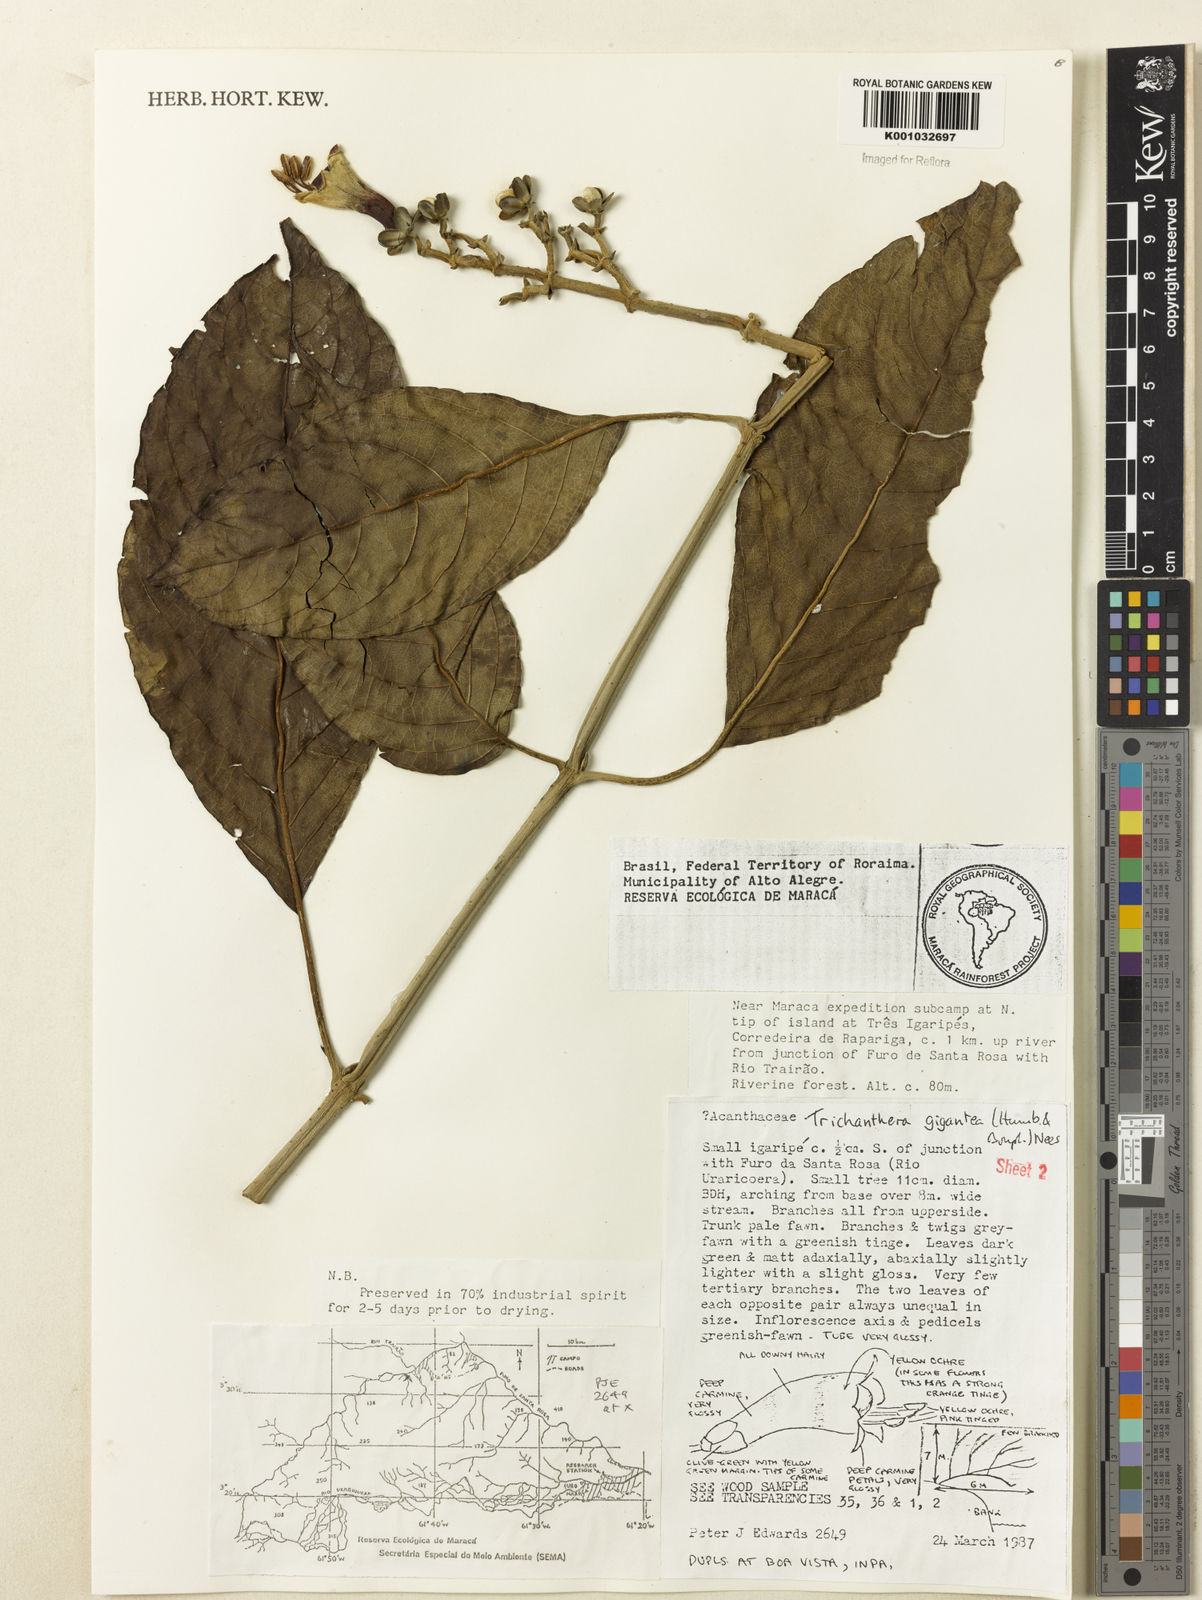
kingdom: Plantae
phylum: Tracheophyta
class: Magnoliopsida
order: Lamiales
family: Acanthaceae
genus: Trichanthera
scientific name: Trichanthera
